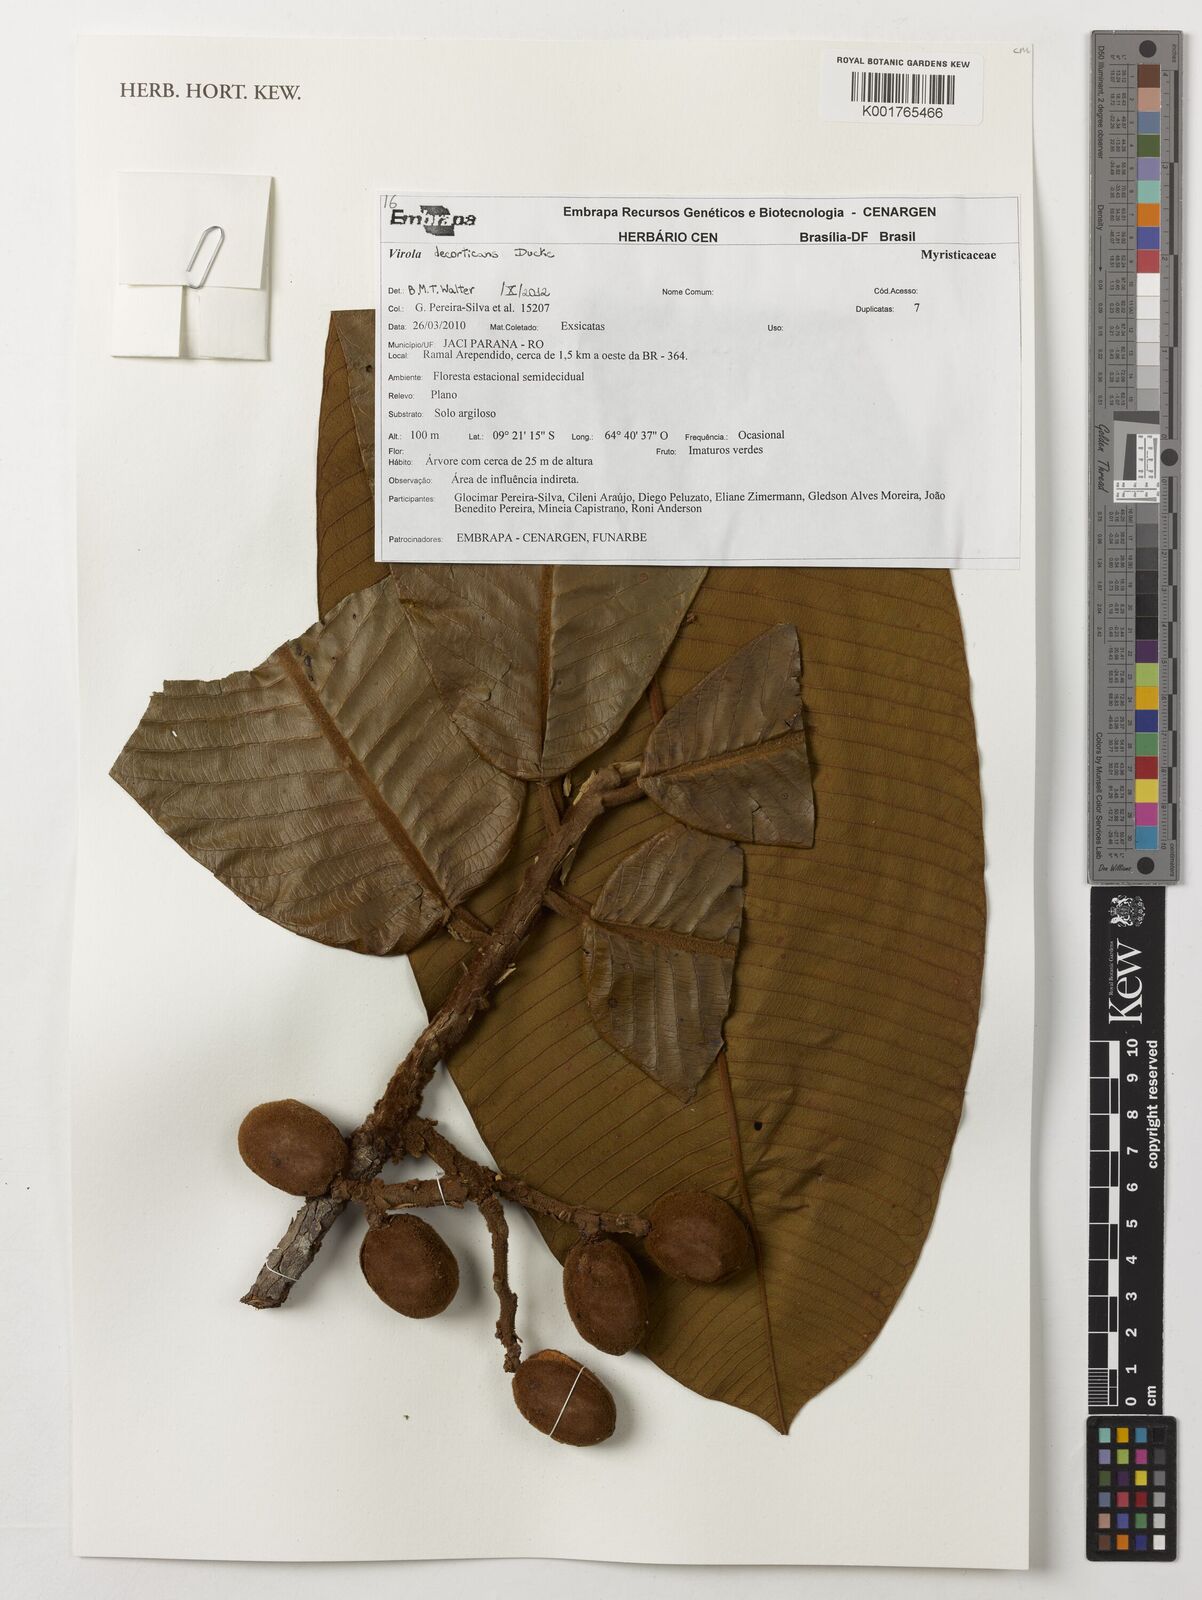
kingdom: Plantae
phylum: Tracheophyta
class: Magnoliopsida
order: Magnoliales
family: Myristicaceae
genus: Virola
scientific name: Virola decorticans
